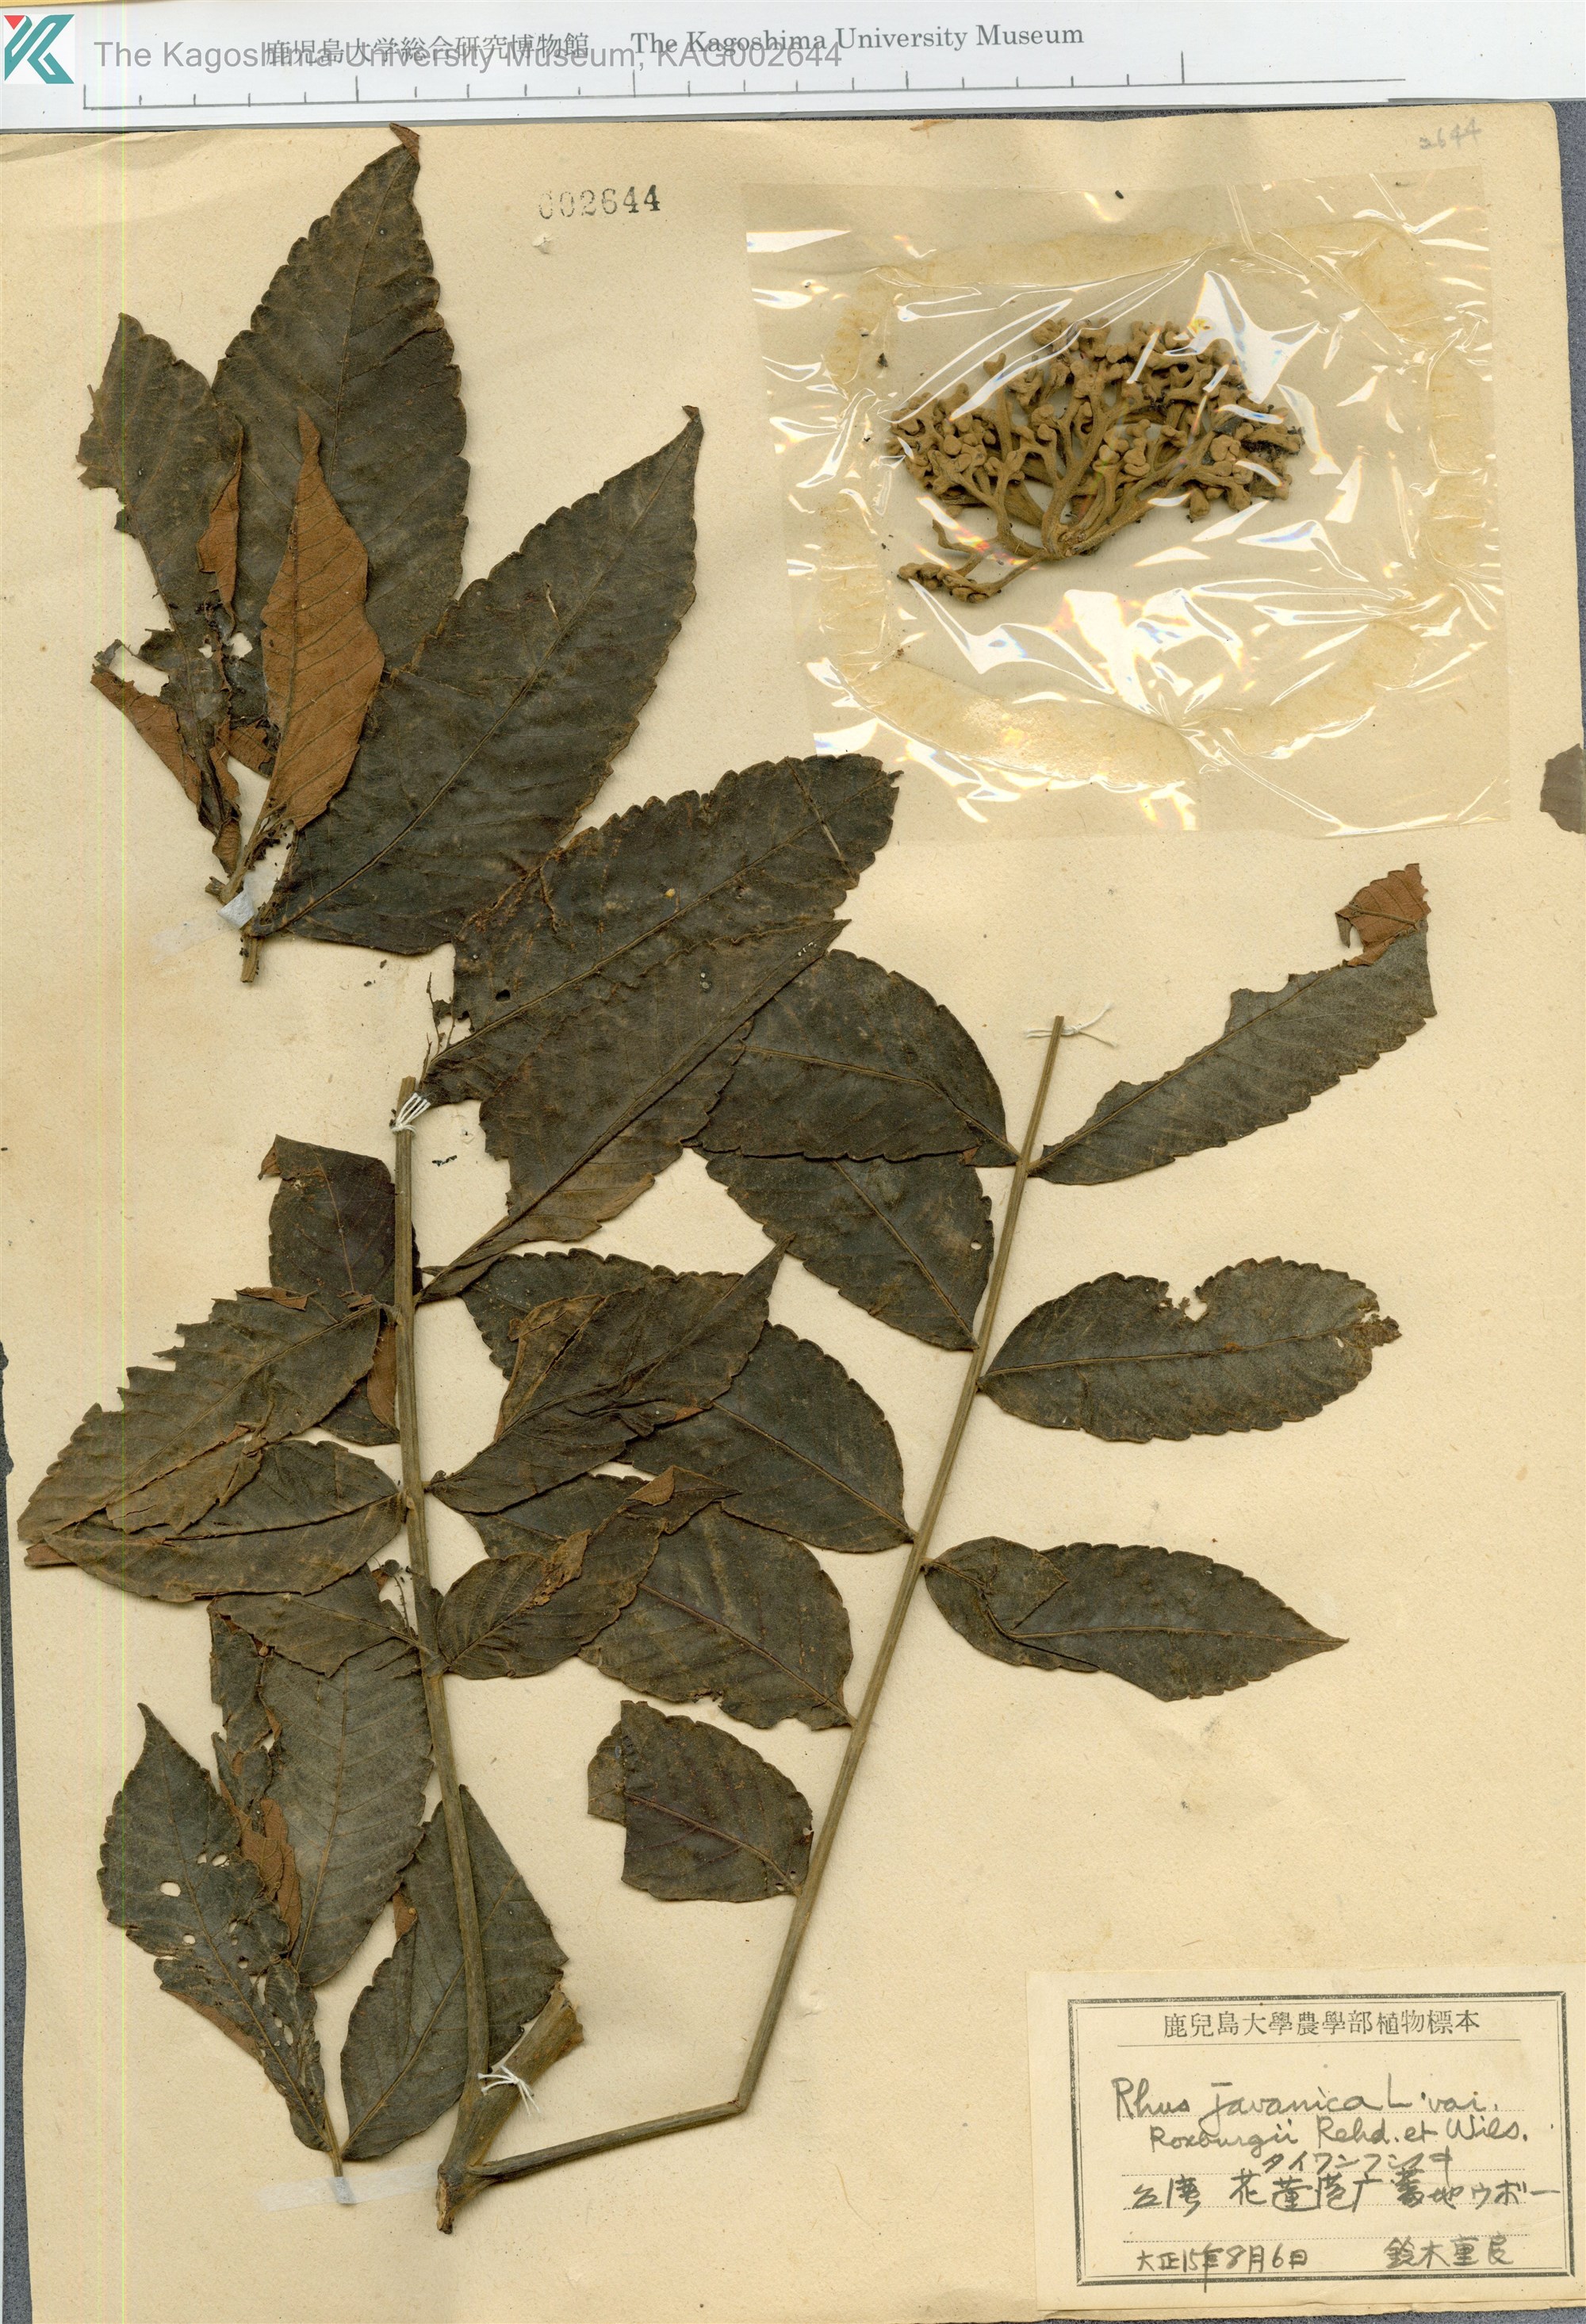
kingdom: Plantae
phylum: Tracheophyta
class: Magnoliopsida
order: Sapindales
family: Anacardiaceae
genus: Rhus
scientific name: Rhus chinensis
